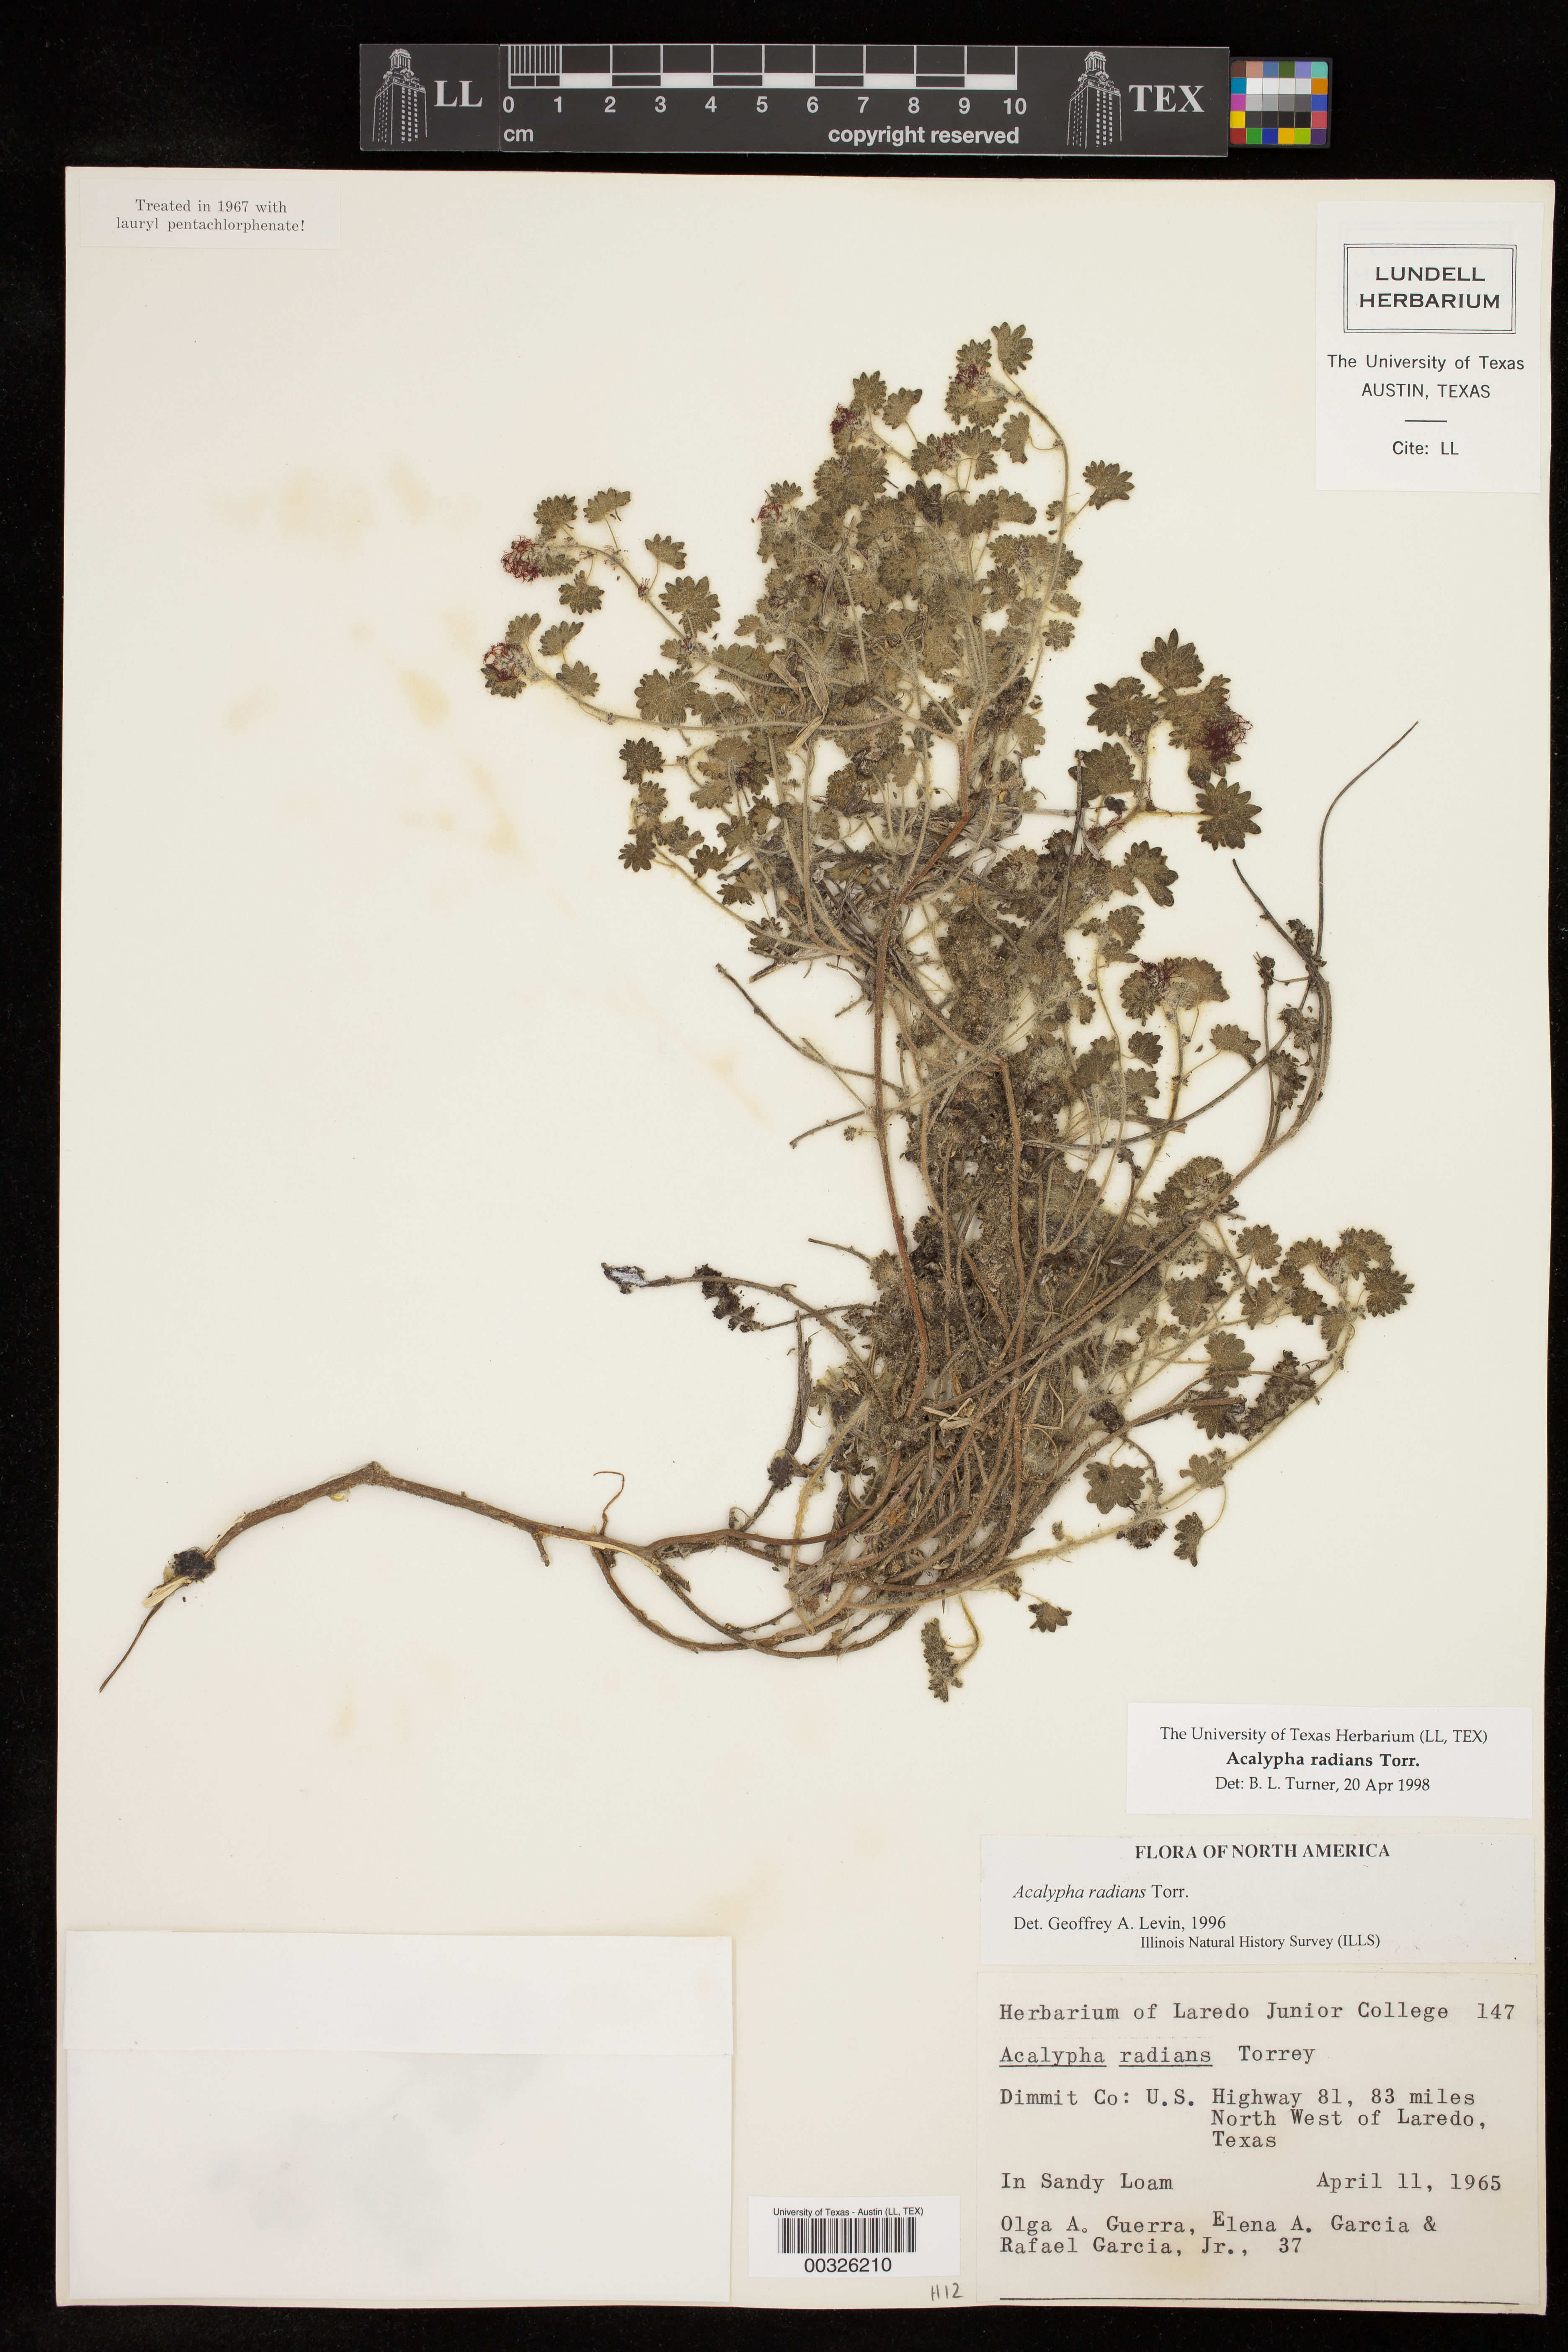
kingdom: Plantae
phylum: Tracheophyta
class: Magnoliopsida
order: Malpighiales
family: Euphorbiaceae
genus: Acalypha
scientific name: Acalypha radians
